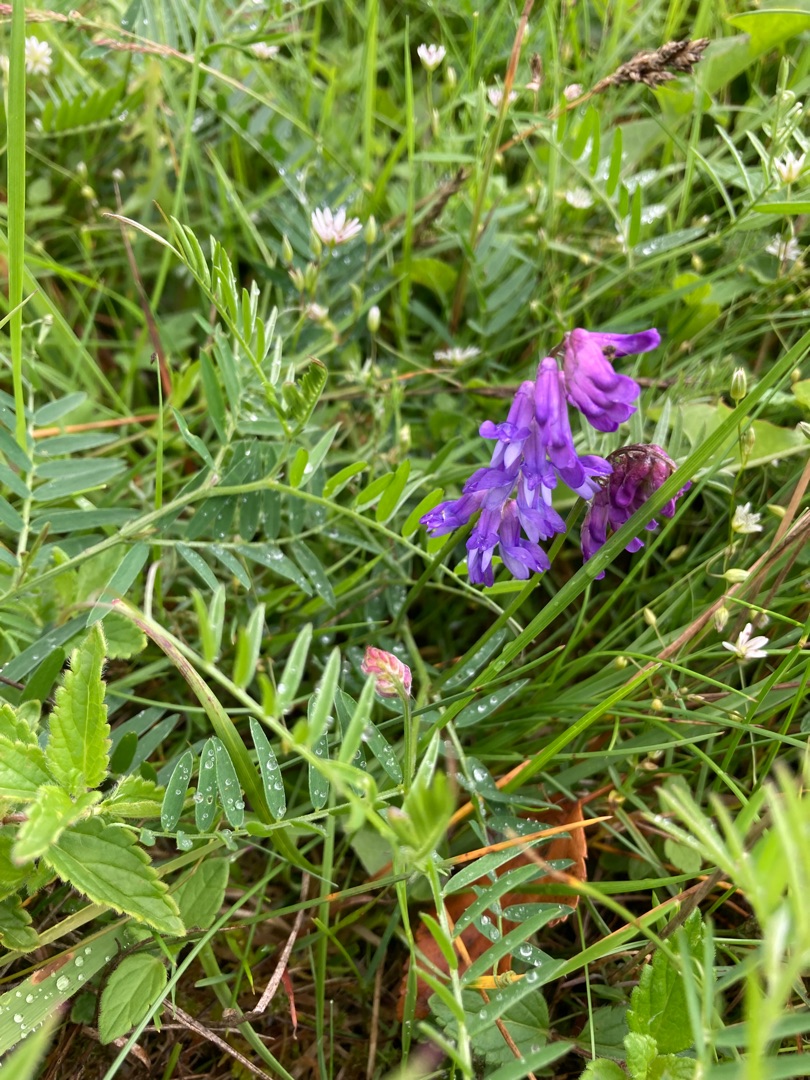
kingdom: Plantae
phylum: Tracheophyta
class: Magnoliopsida
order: Fabales
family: Fabaceae
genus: Vicia
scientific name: Vicia cracca
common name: Muse-vikke
